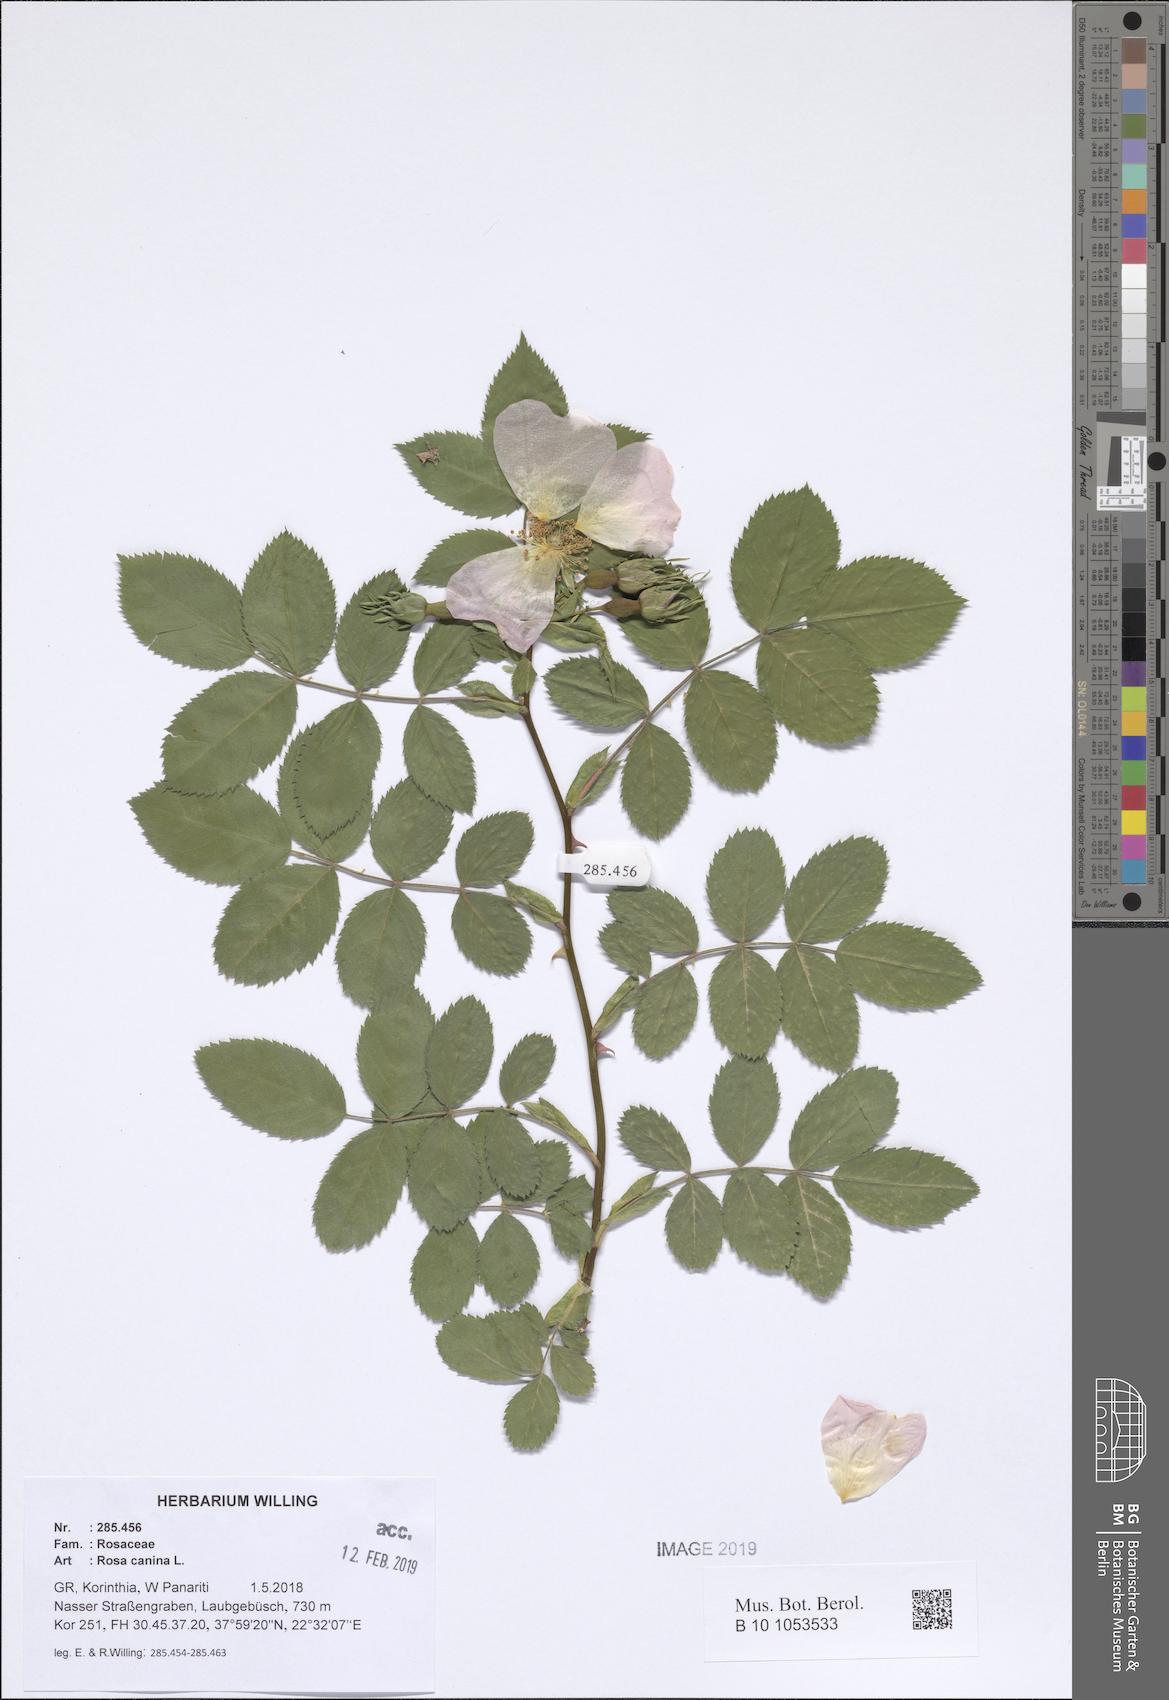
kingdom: Plantae
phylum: Tracheophyta
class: Magnoliopsida
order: Rosales
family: Rosaceae
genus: Rosa
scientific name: Rosa canina
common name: Dog rose
